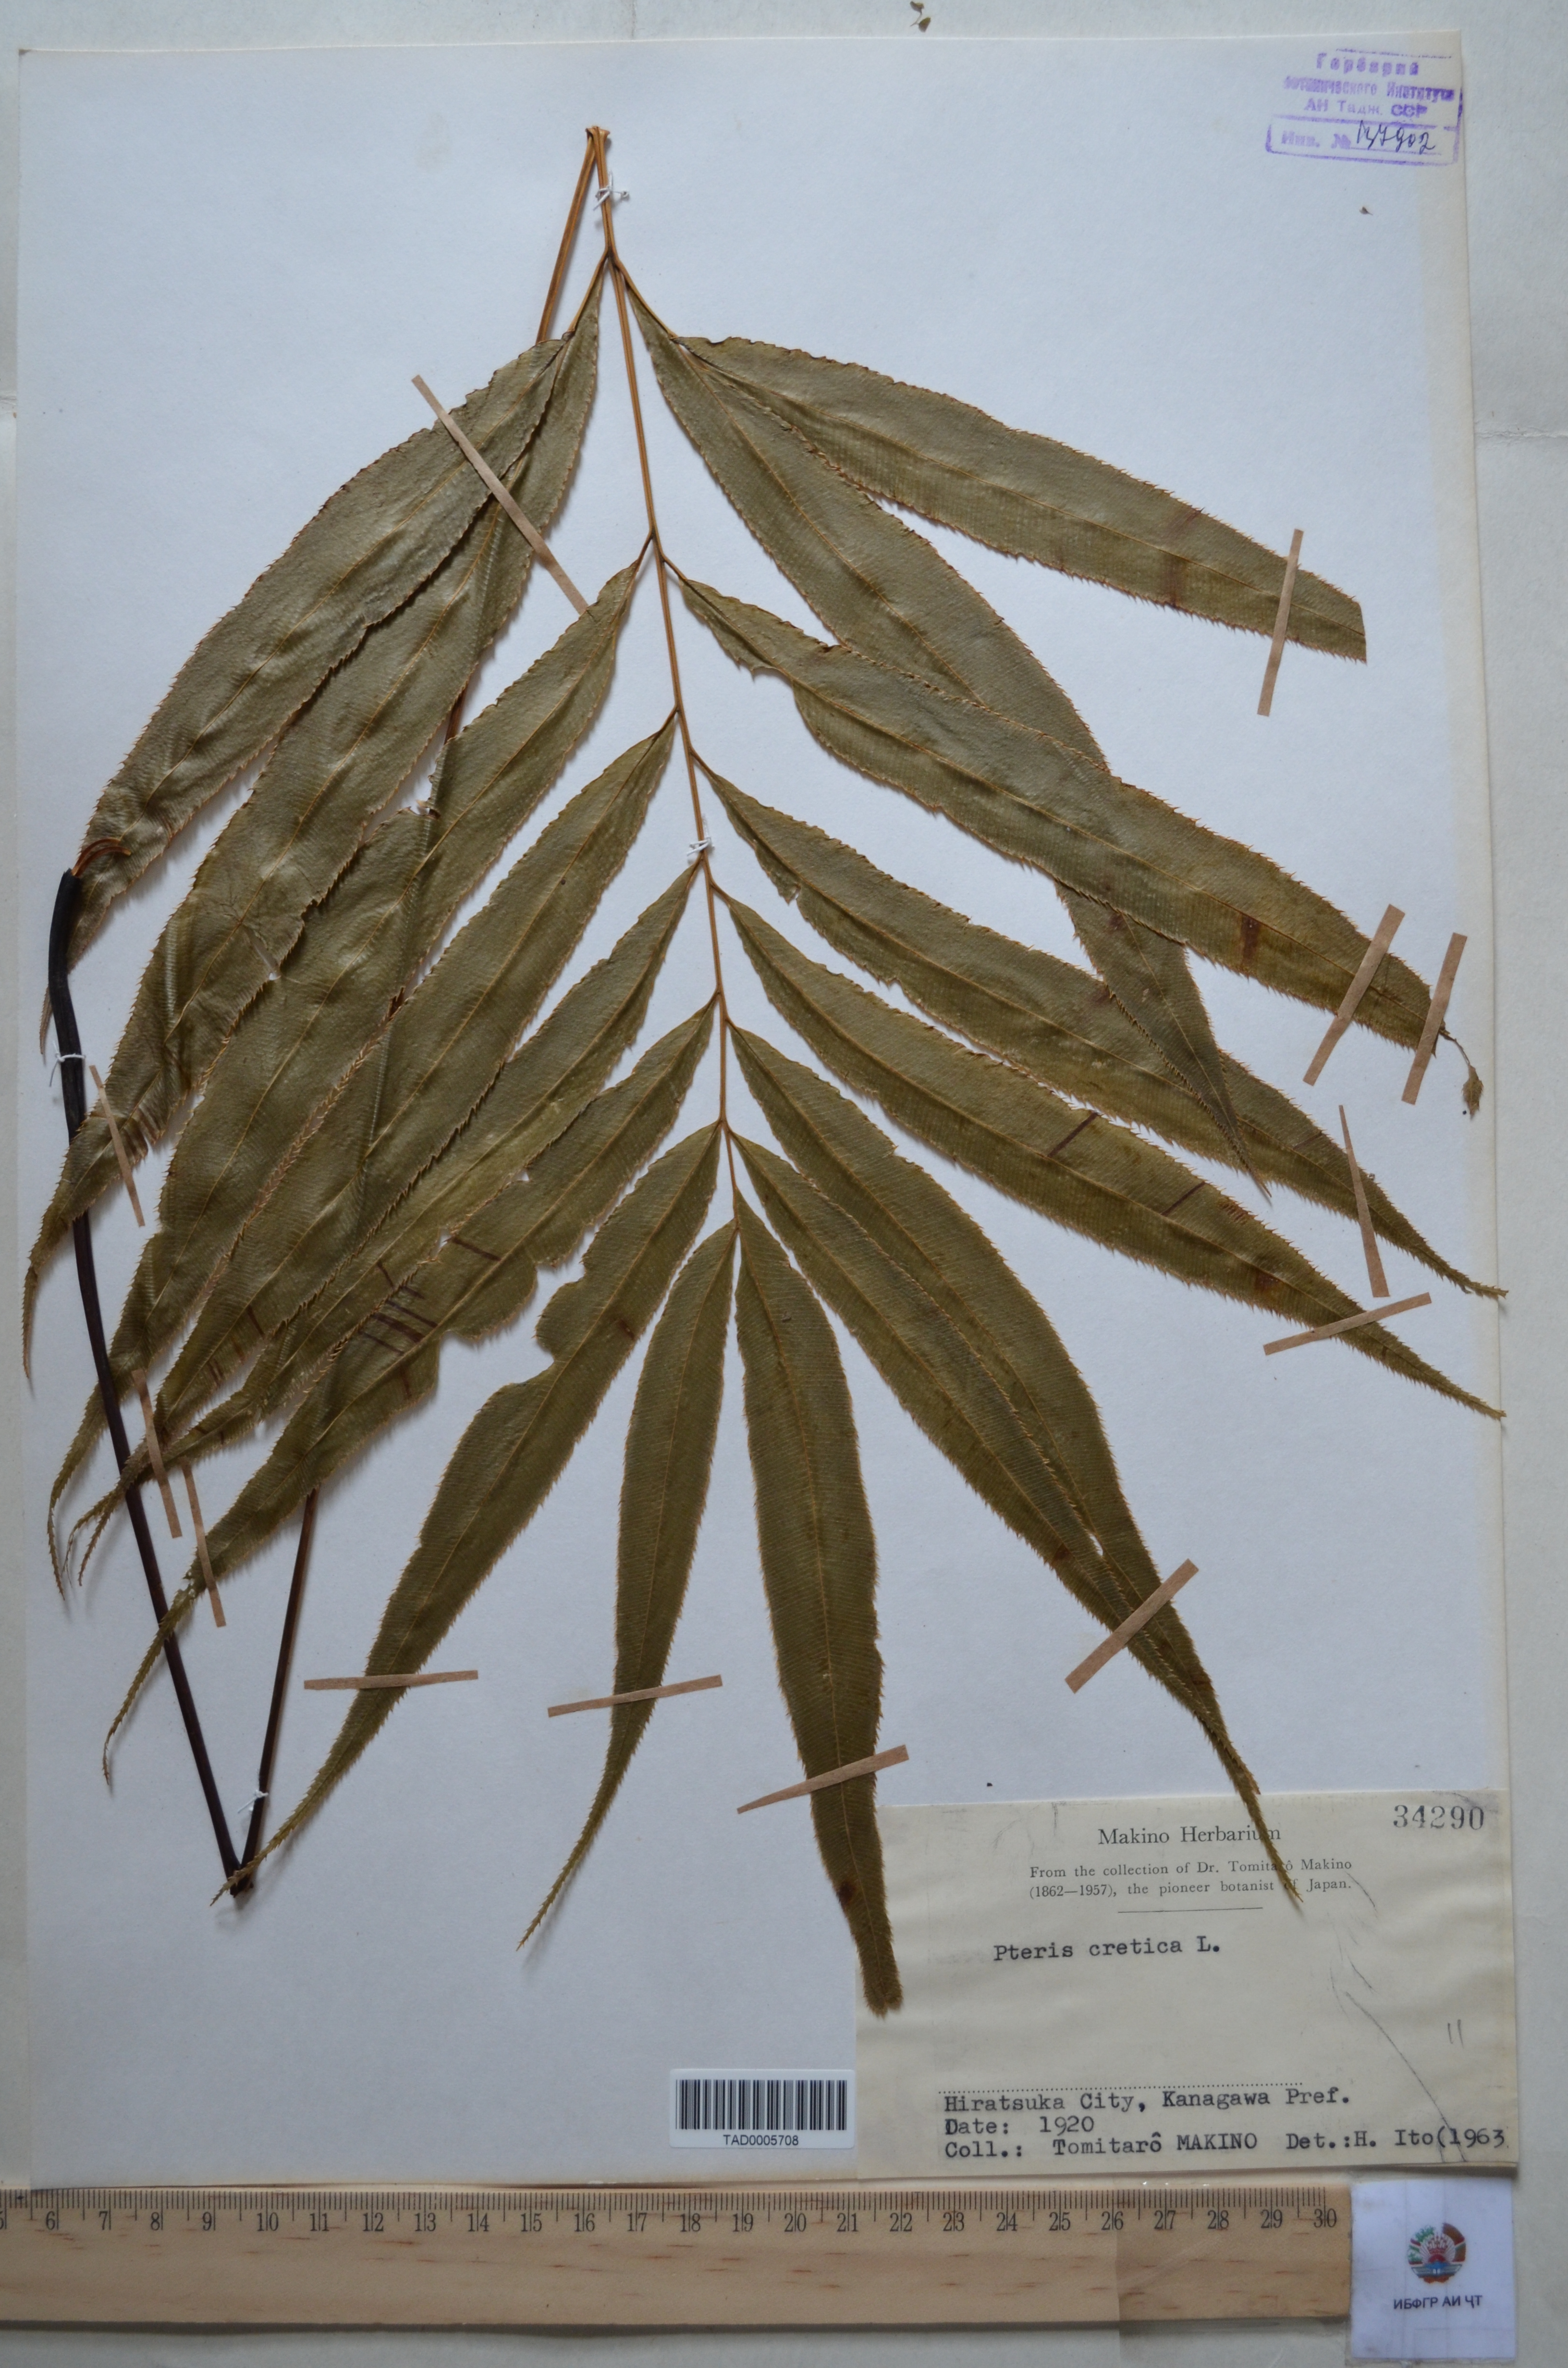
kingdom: Plantae
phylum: Tracheophyta
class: Polypodiopsida
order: Polypodiales
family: Pteridaceae
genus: Pteris
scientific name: Pteris cretica
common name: Ribbon fern
